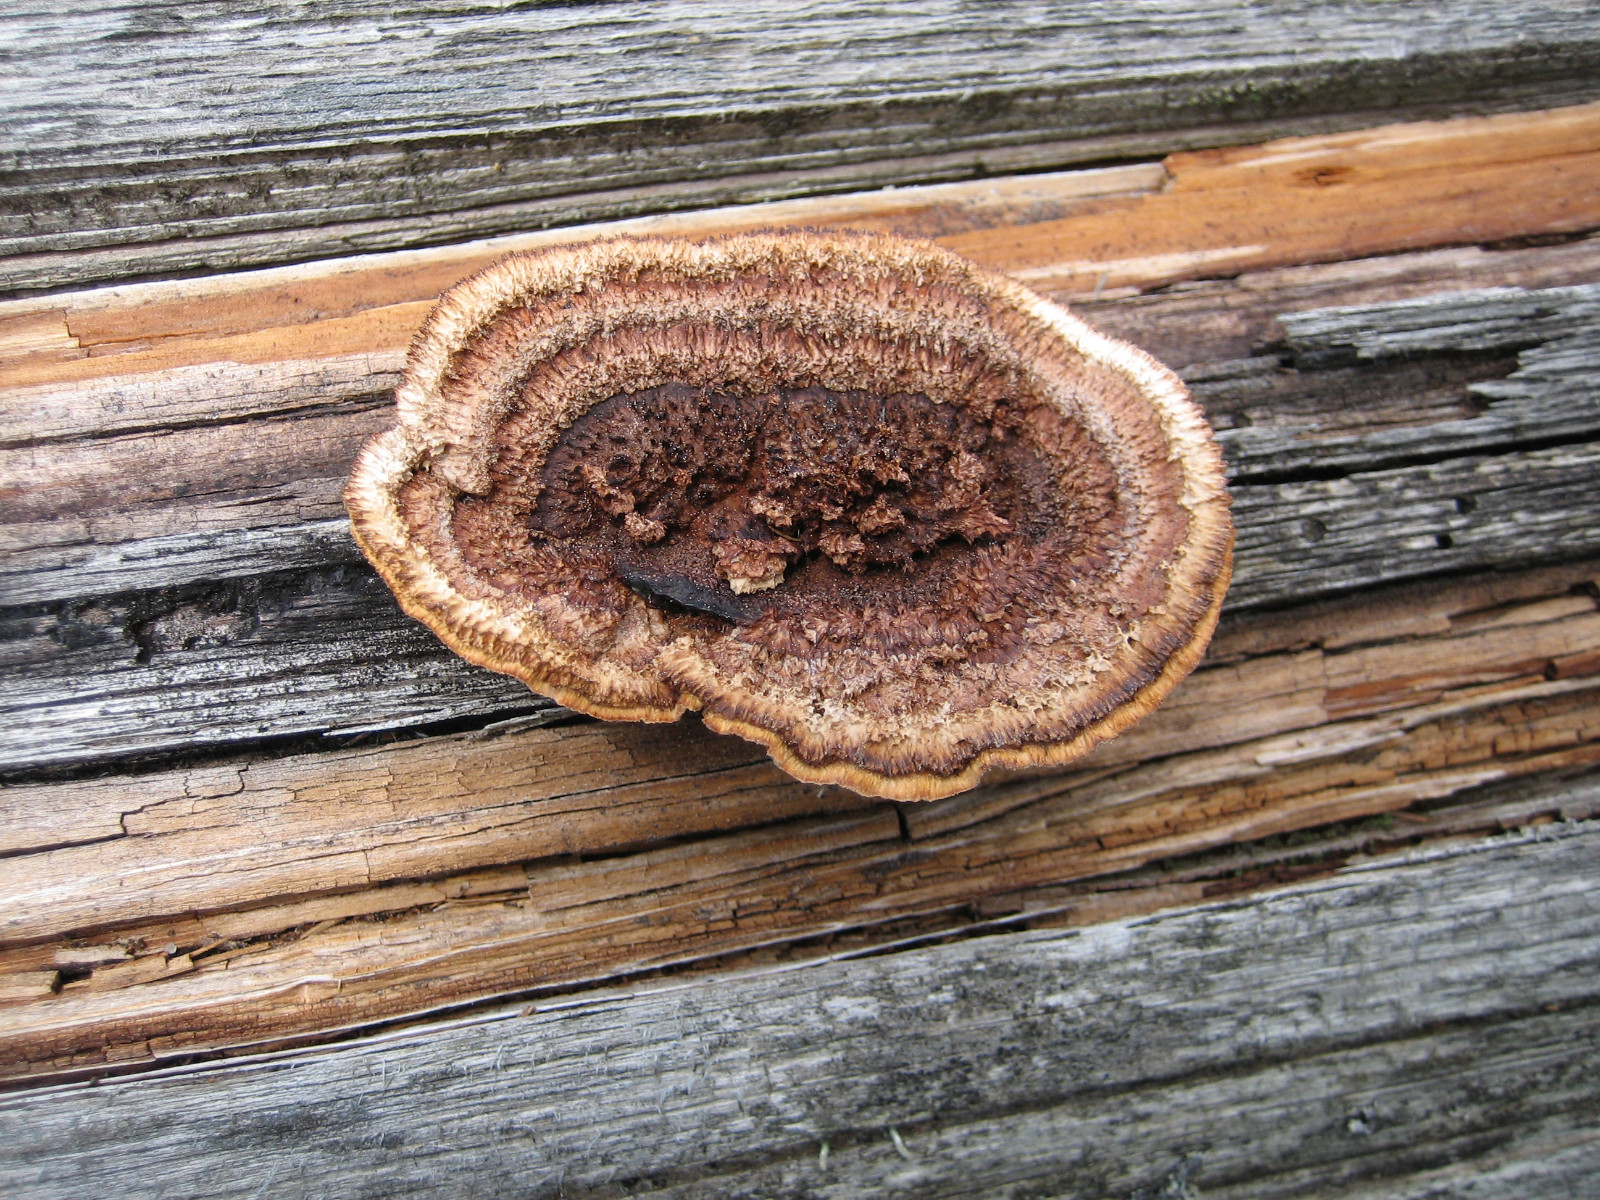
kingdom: Fungi
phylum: Basidiomycota
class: Agaricomycetes
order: Gloeophyllales
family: Gloeophyllaceae
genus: Gloeophyllum
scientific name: Gloeophyllum sepiarium
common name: fyrre-korkhat
